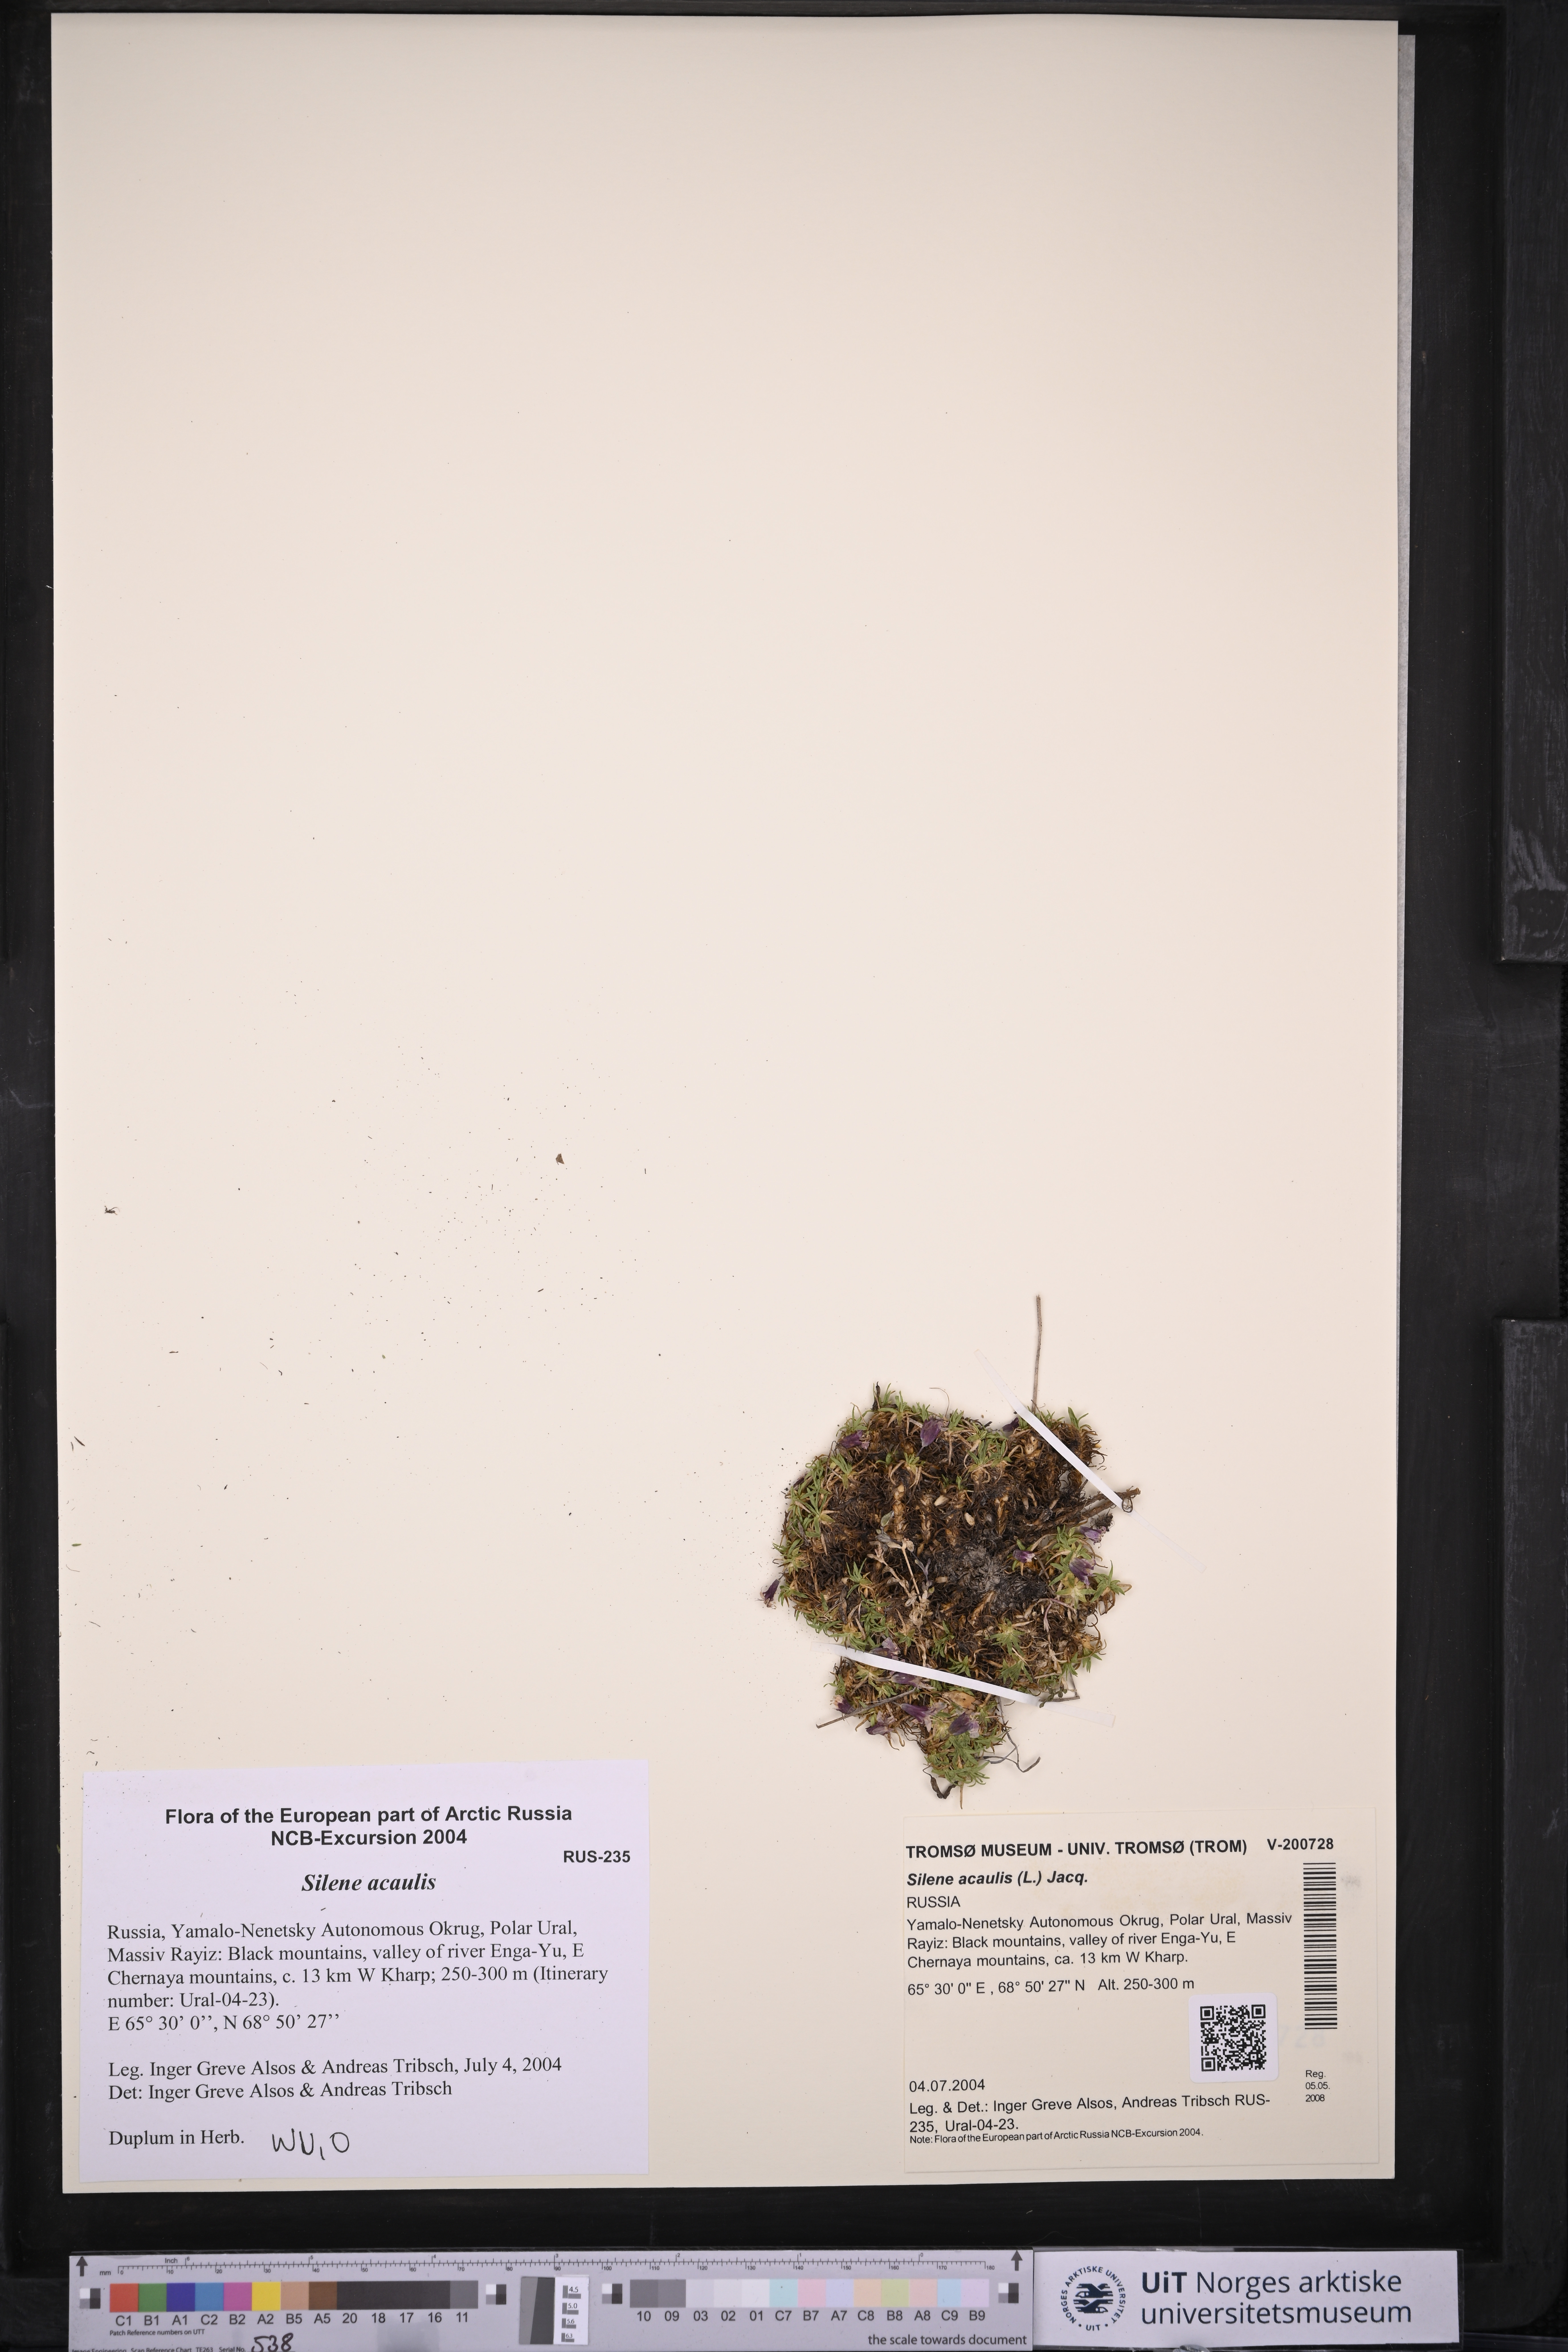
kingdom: Plantae
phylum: Tracheophyta
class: Magnoliopsida
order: Caryophyllales
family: Caryophyllaceae
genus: Silene
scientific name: Silene acaulis
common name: Moss campion
